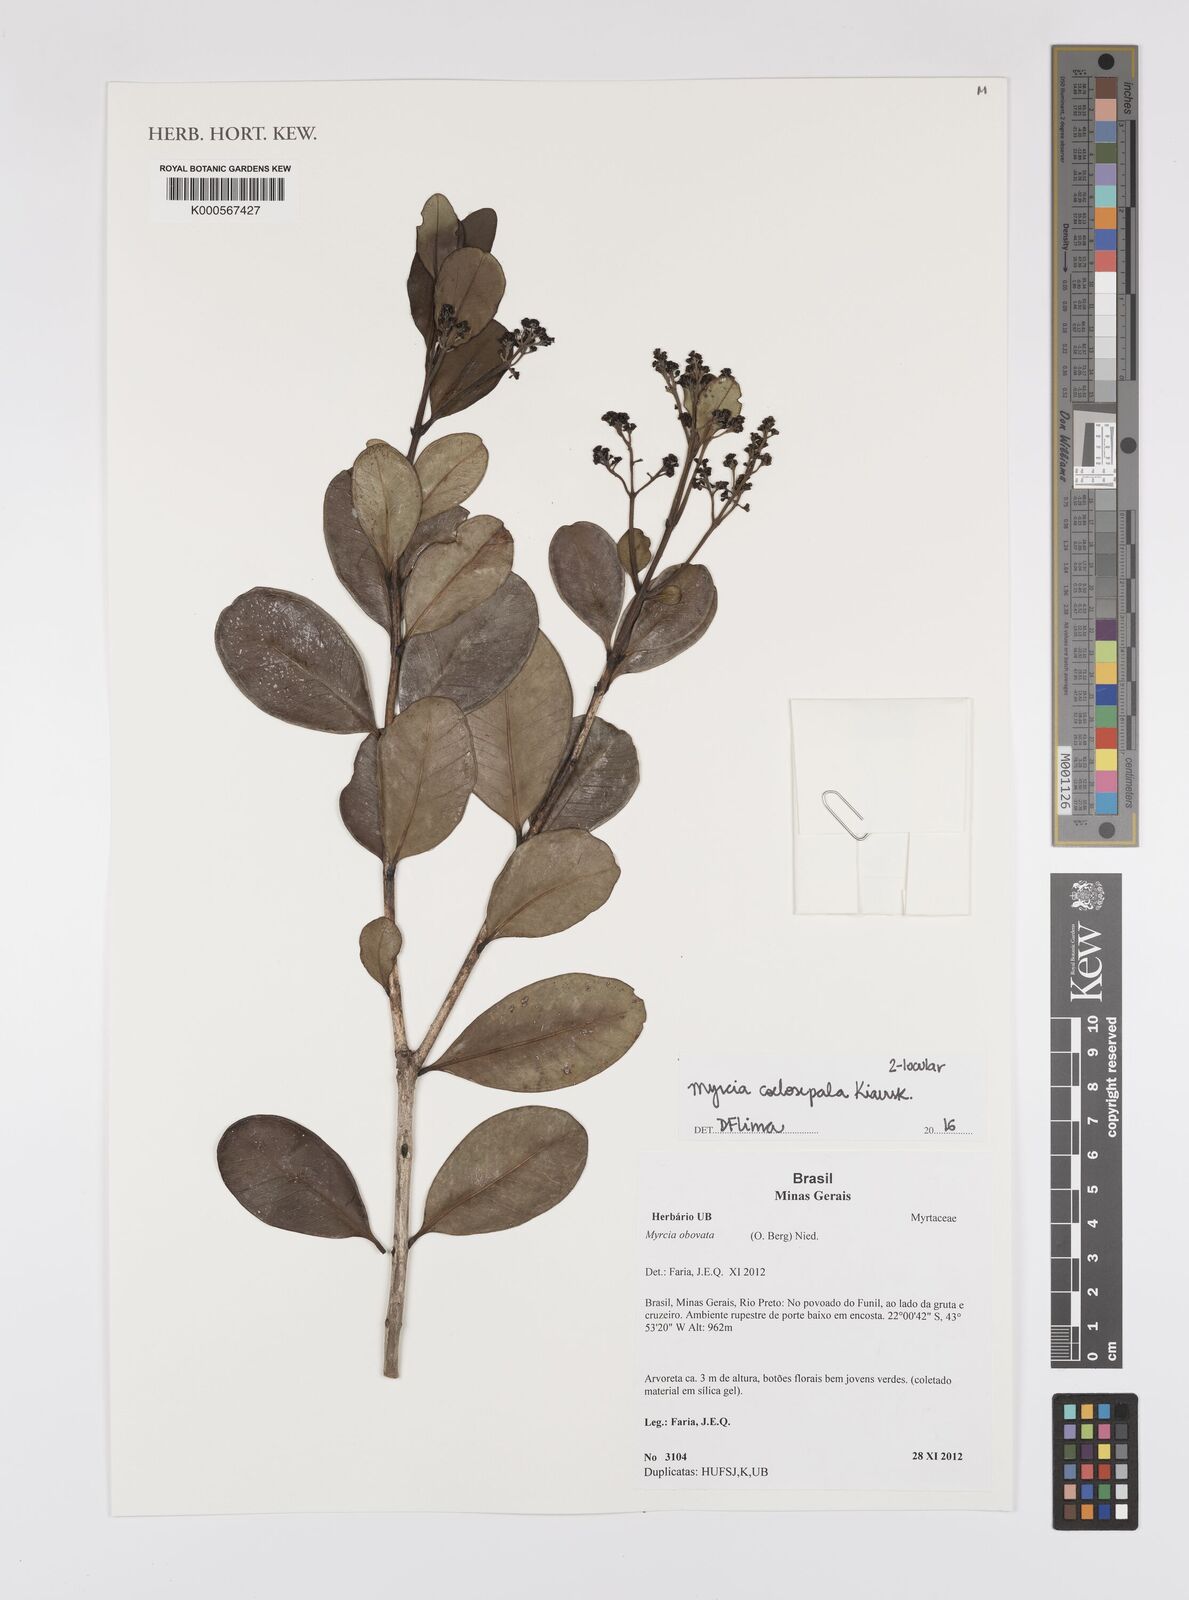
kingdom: Plantae
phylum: Tracheophyta
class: Magnoliopsida
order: Myrtales
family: Myrtaceae
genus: Myrcia
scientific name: Myrcia coelosepala
